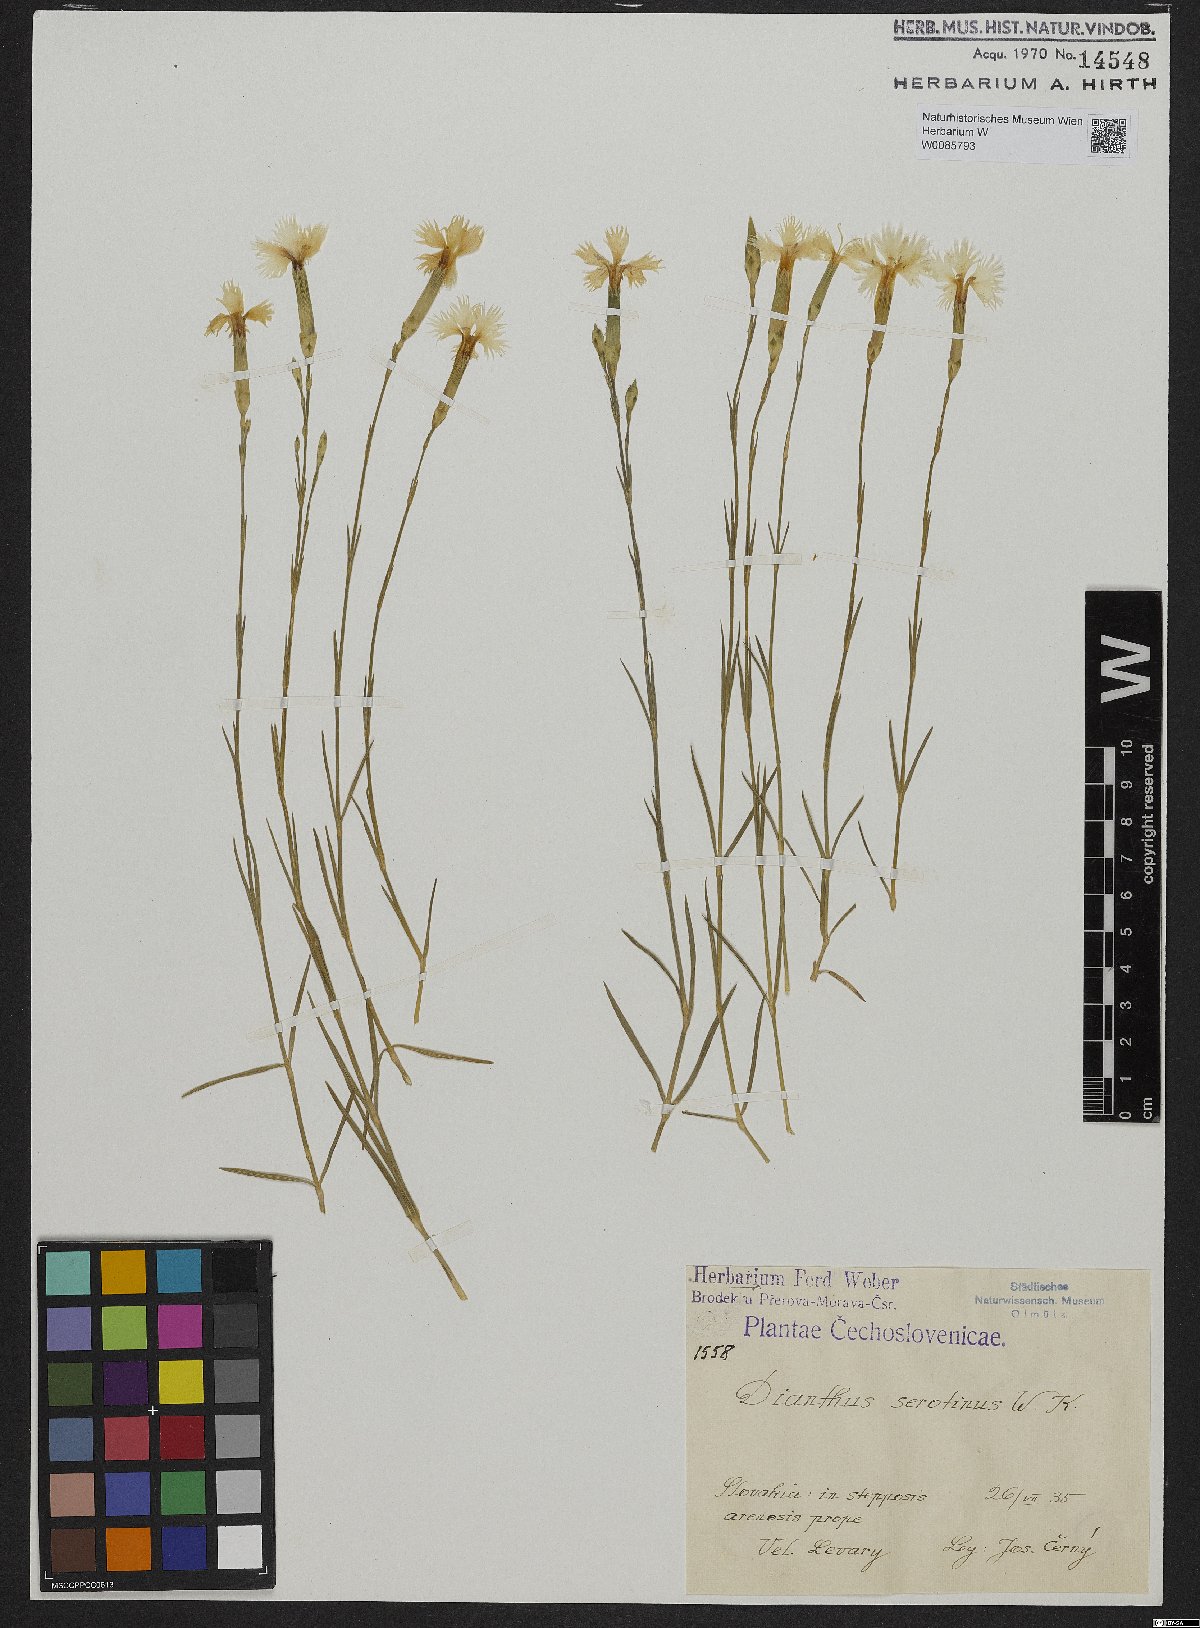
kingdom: Plantae
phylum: Tracheophyta
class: Magnoliopsida
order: Caryophyllales
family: Caryophyllaceae
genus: Dianthus
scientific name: Dianthus serotinus
